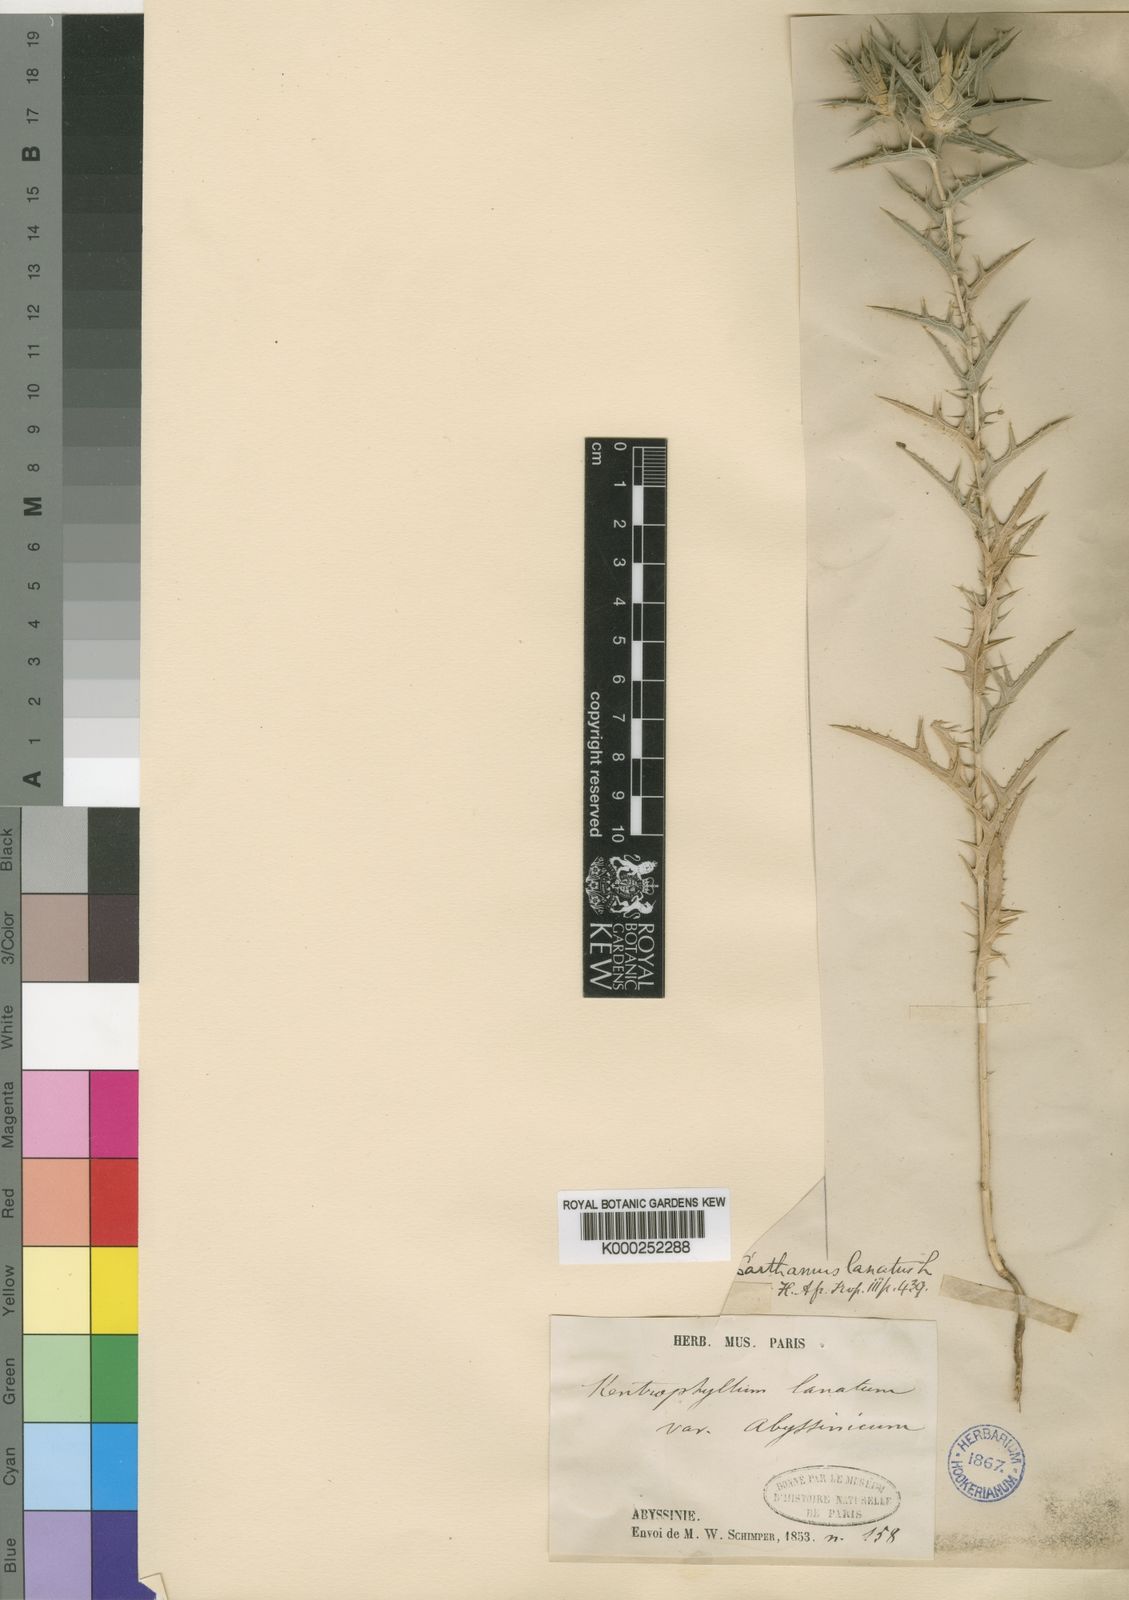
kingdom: Plantae
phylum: Tracheophyta
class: Magnoliopsida
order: Asterales
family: Asteraceae
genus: Carthamus
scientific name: Carthamus lanatus
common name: Downy safflower
